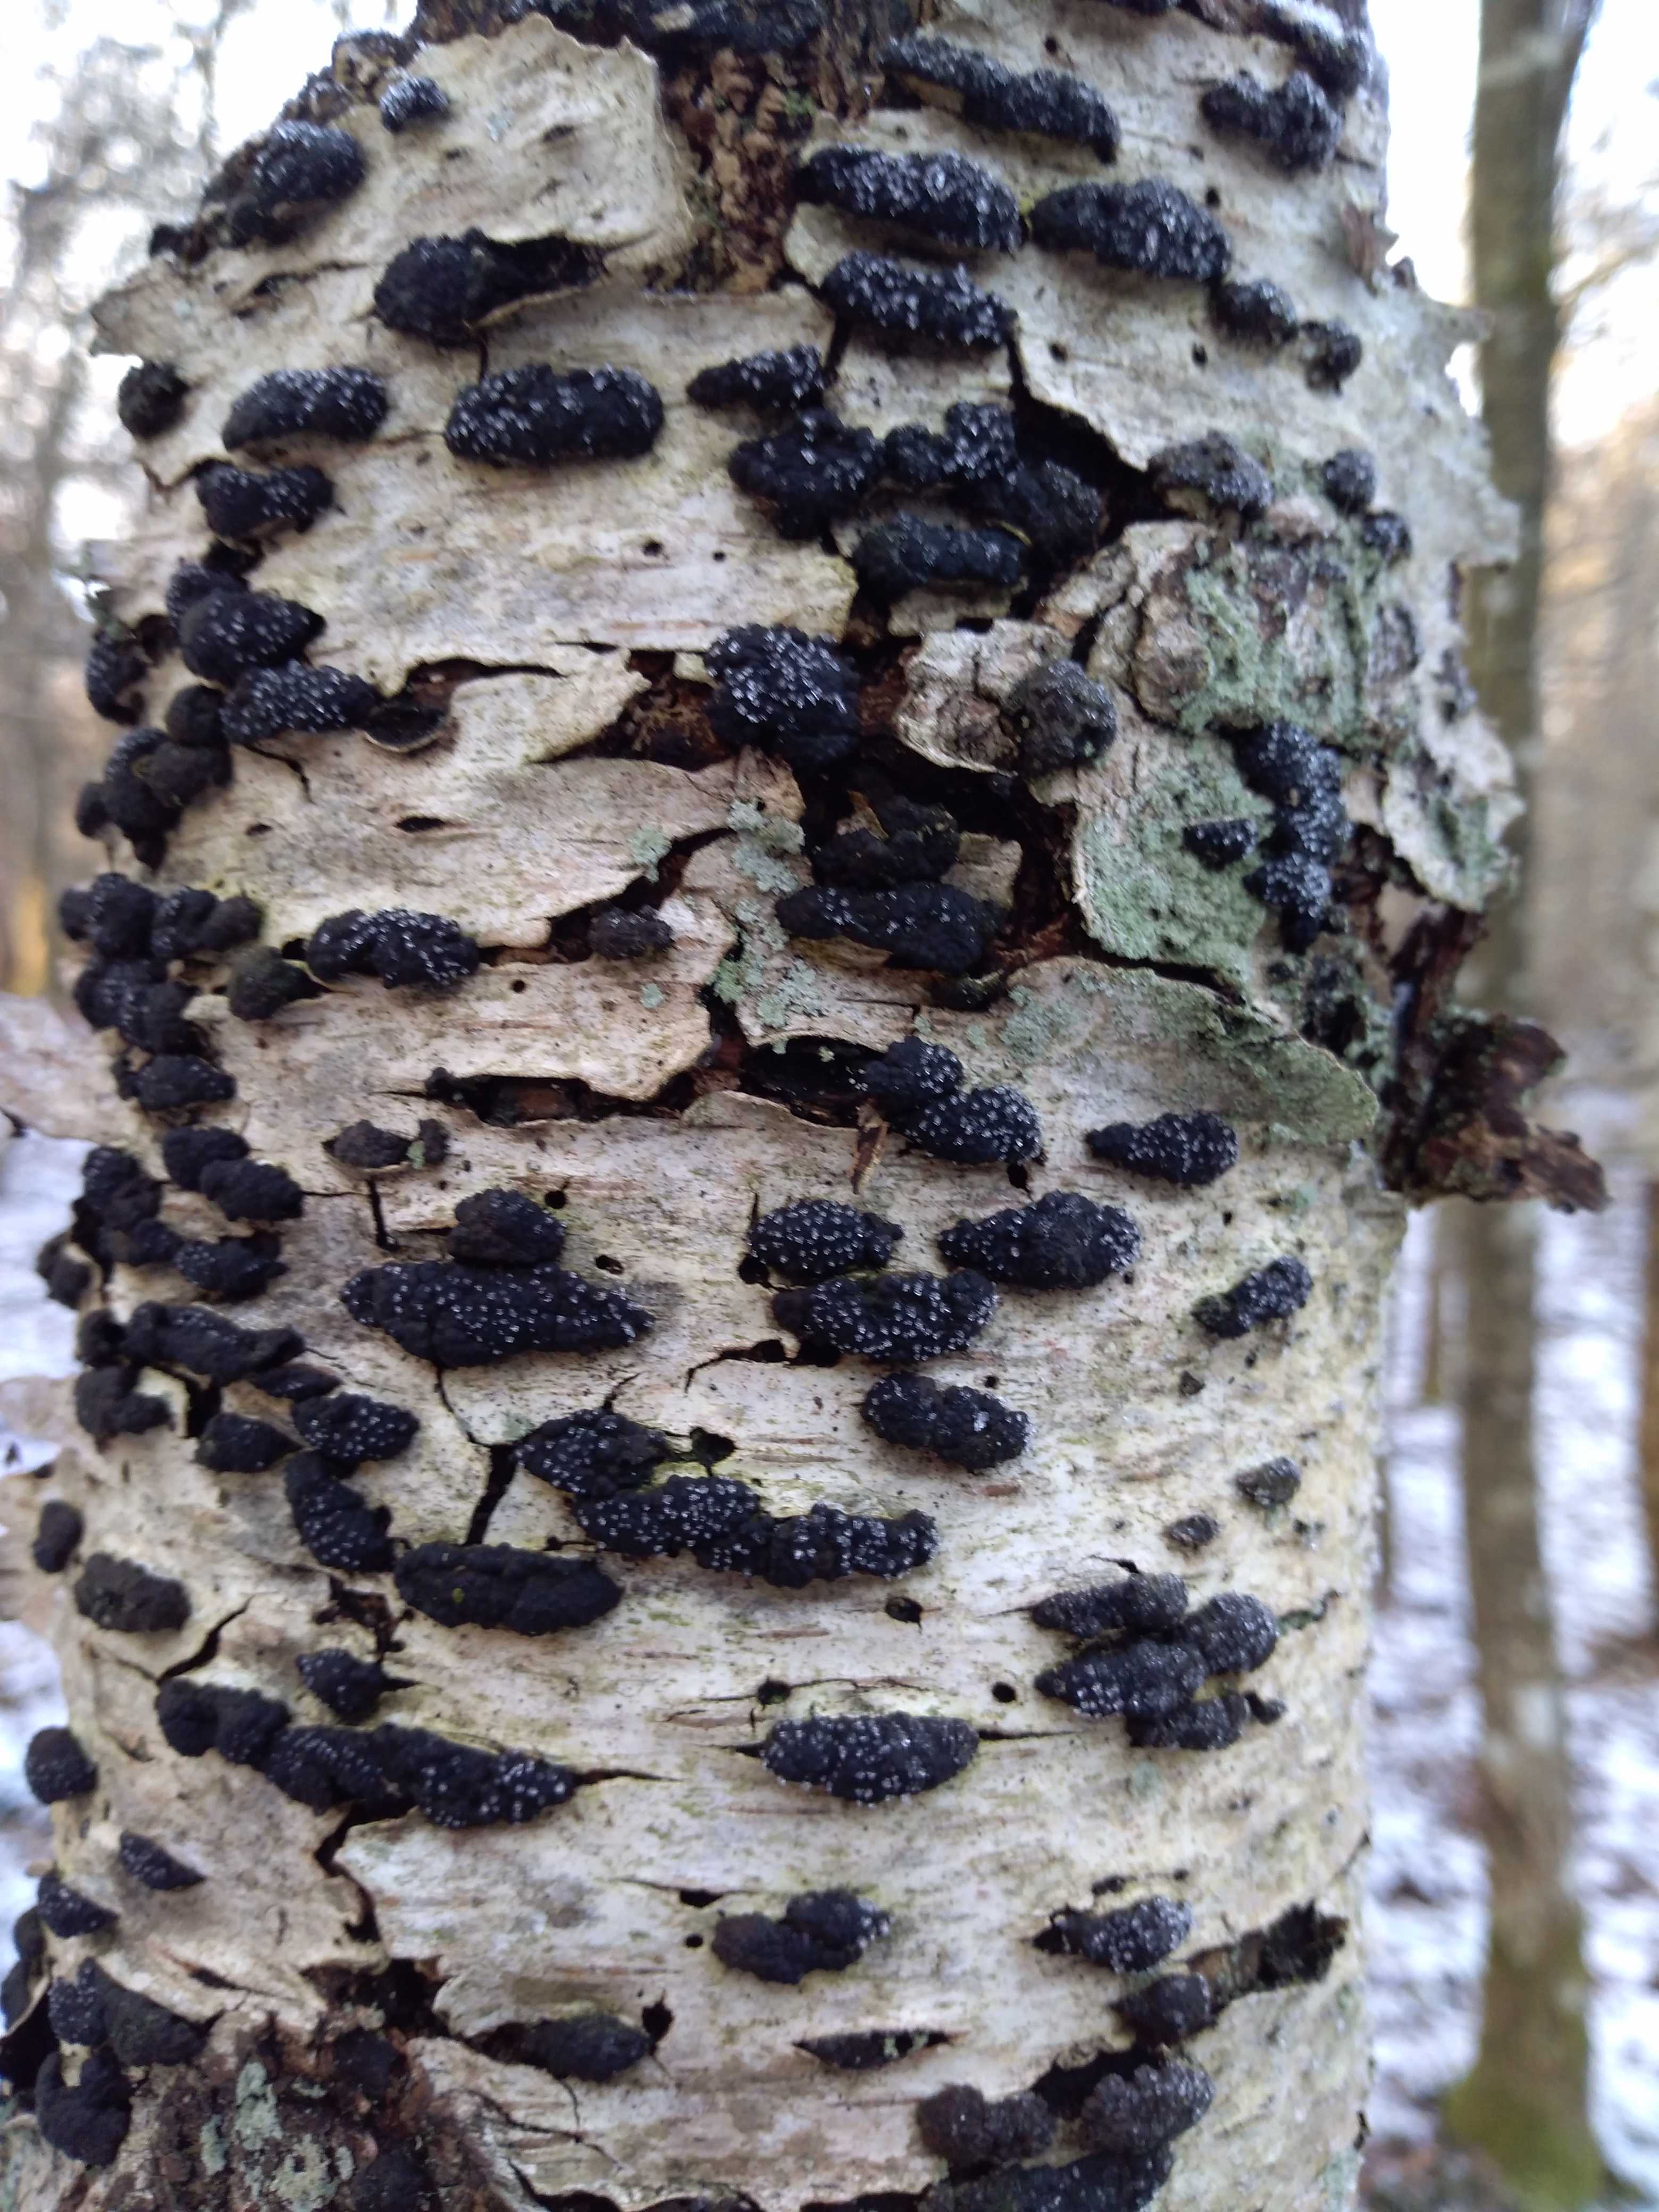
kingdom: Fungi
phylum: Ascomycota
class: Sordariomycetes
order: Xylariales
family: Hypoxylaceae
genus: Jackrogersella
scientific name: Jackrogersella multiformis
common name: foranderlig kulbær
